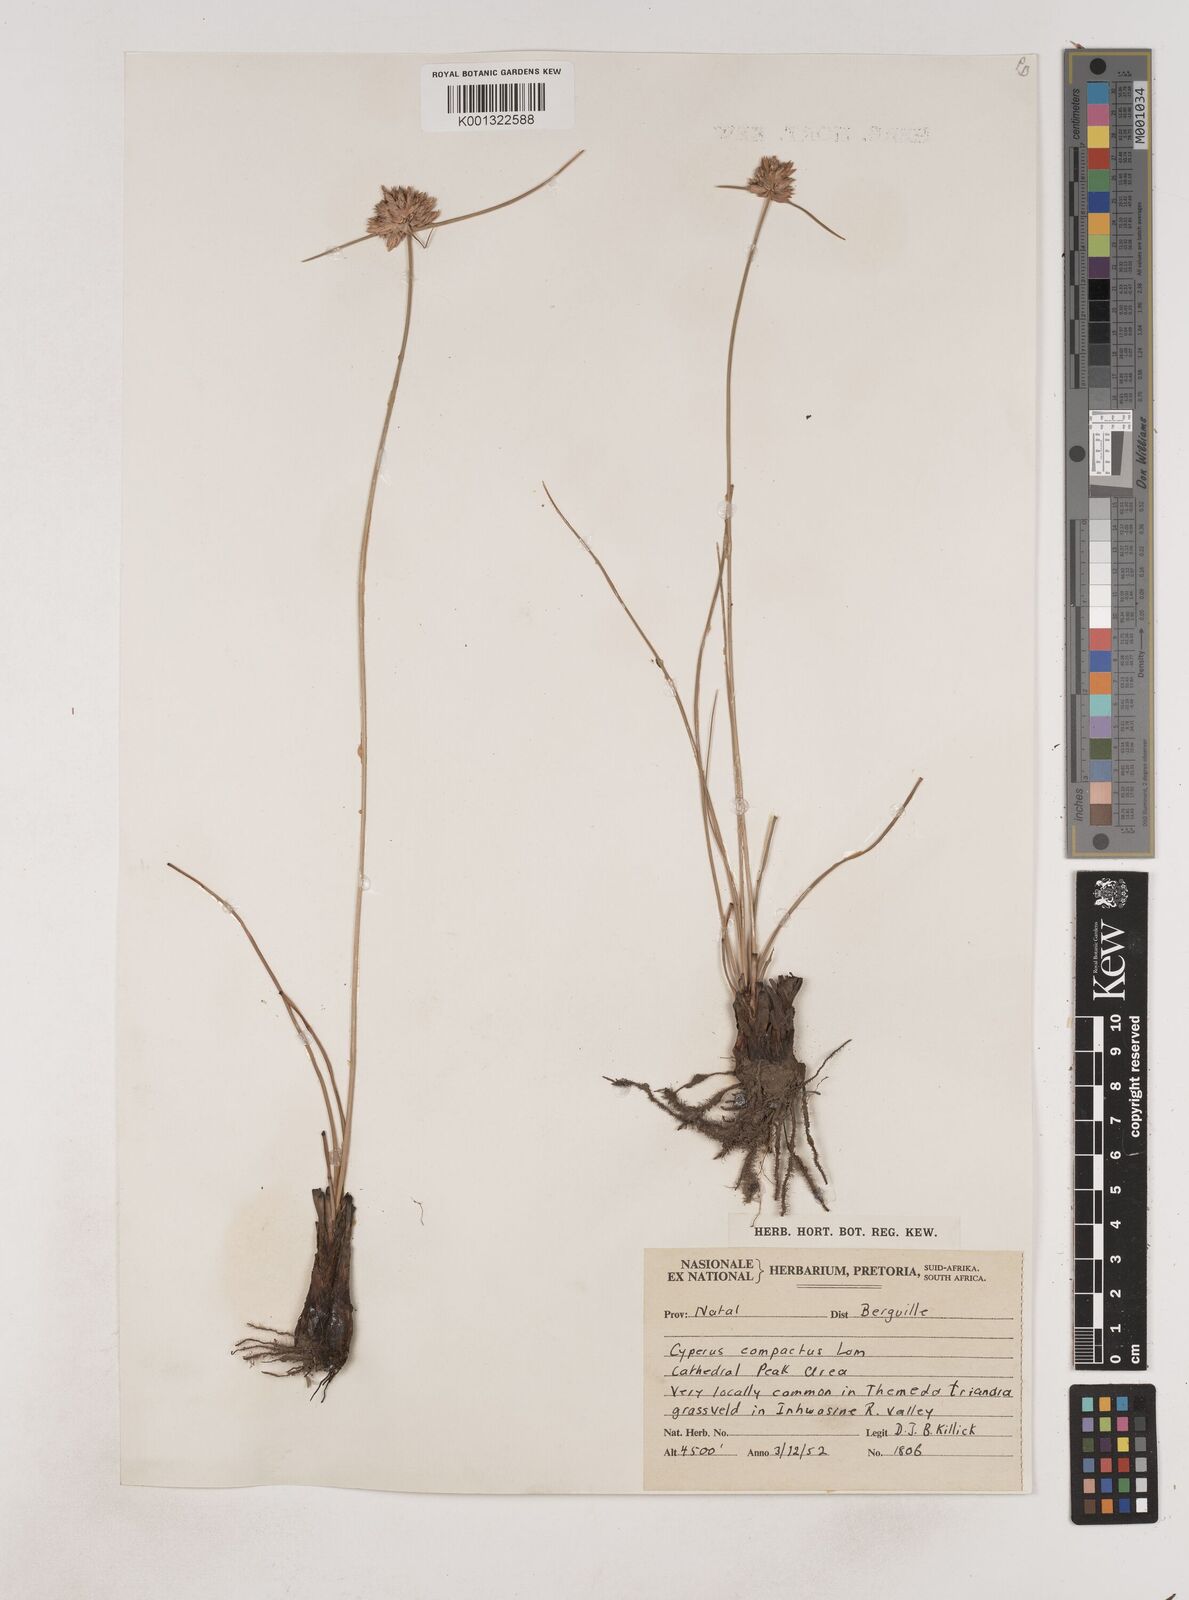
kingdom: Plantae
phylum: Tracheophyta
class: Liliopsida
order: Poales
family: Cyperaceae
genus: Cyperus
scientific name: Cyperus niveus
